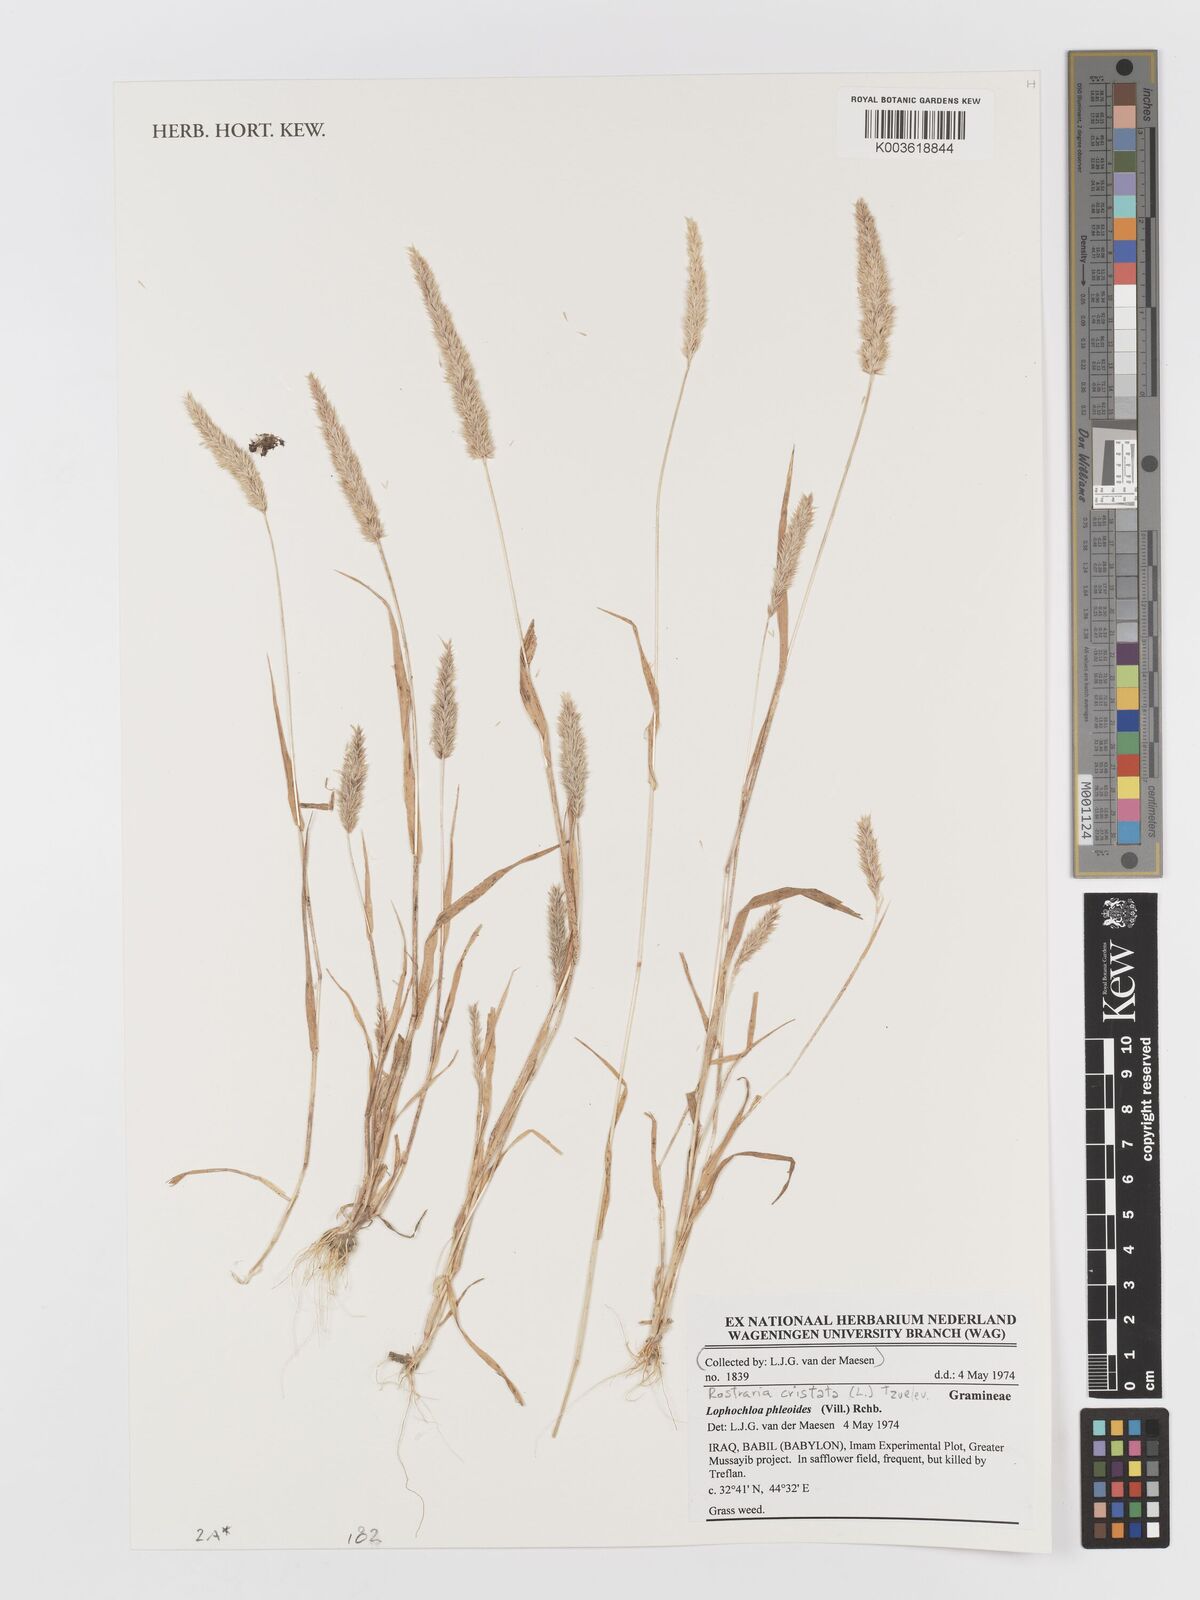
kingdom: Plantae
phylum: Tracheophyta
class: Liliopsida
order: Poales
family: Poaceae
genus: Rostraria
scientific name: Rostraria cristata
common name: Mediterranean hair-grass
